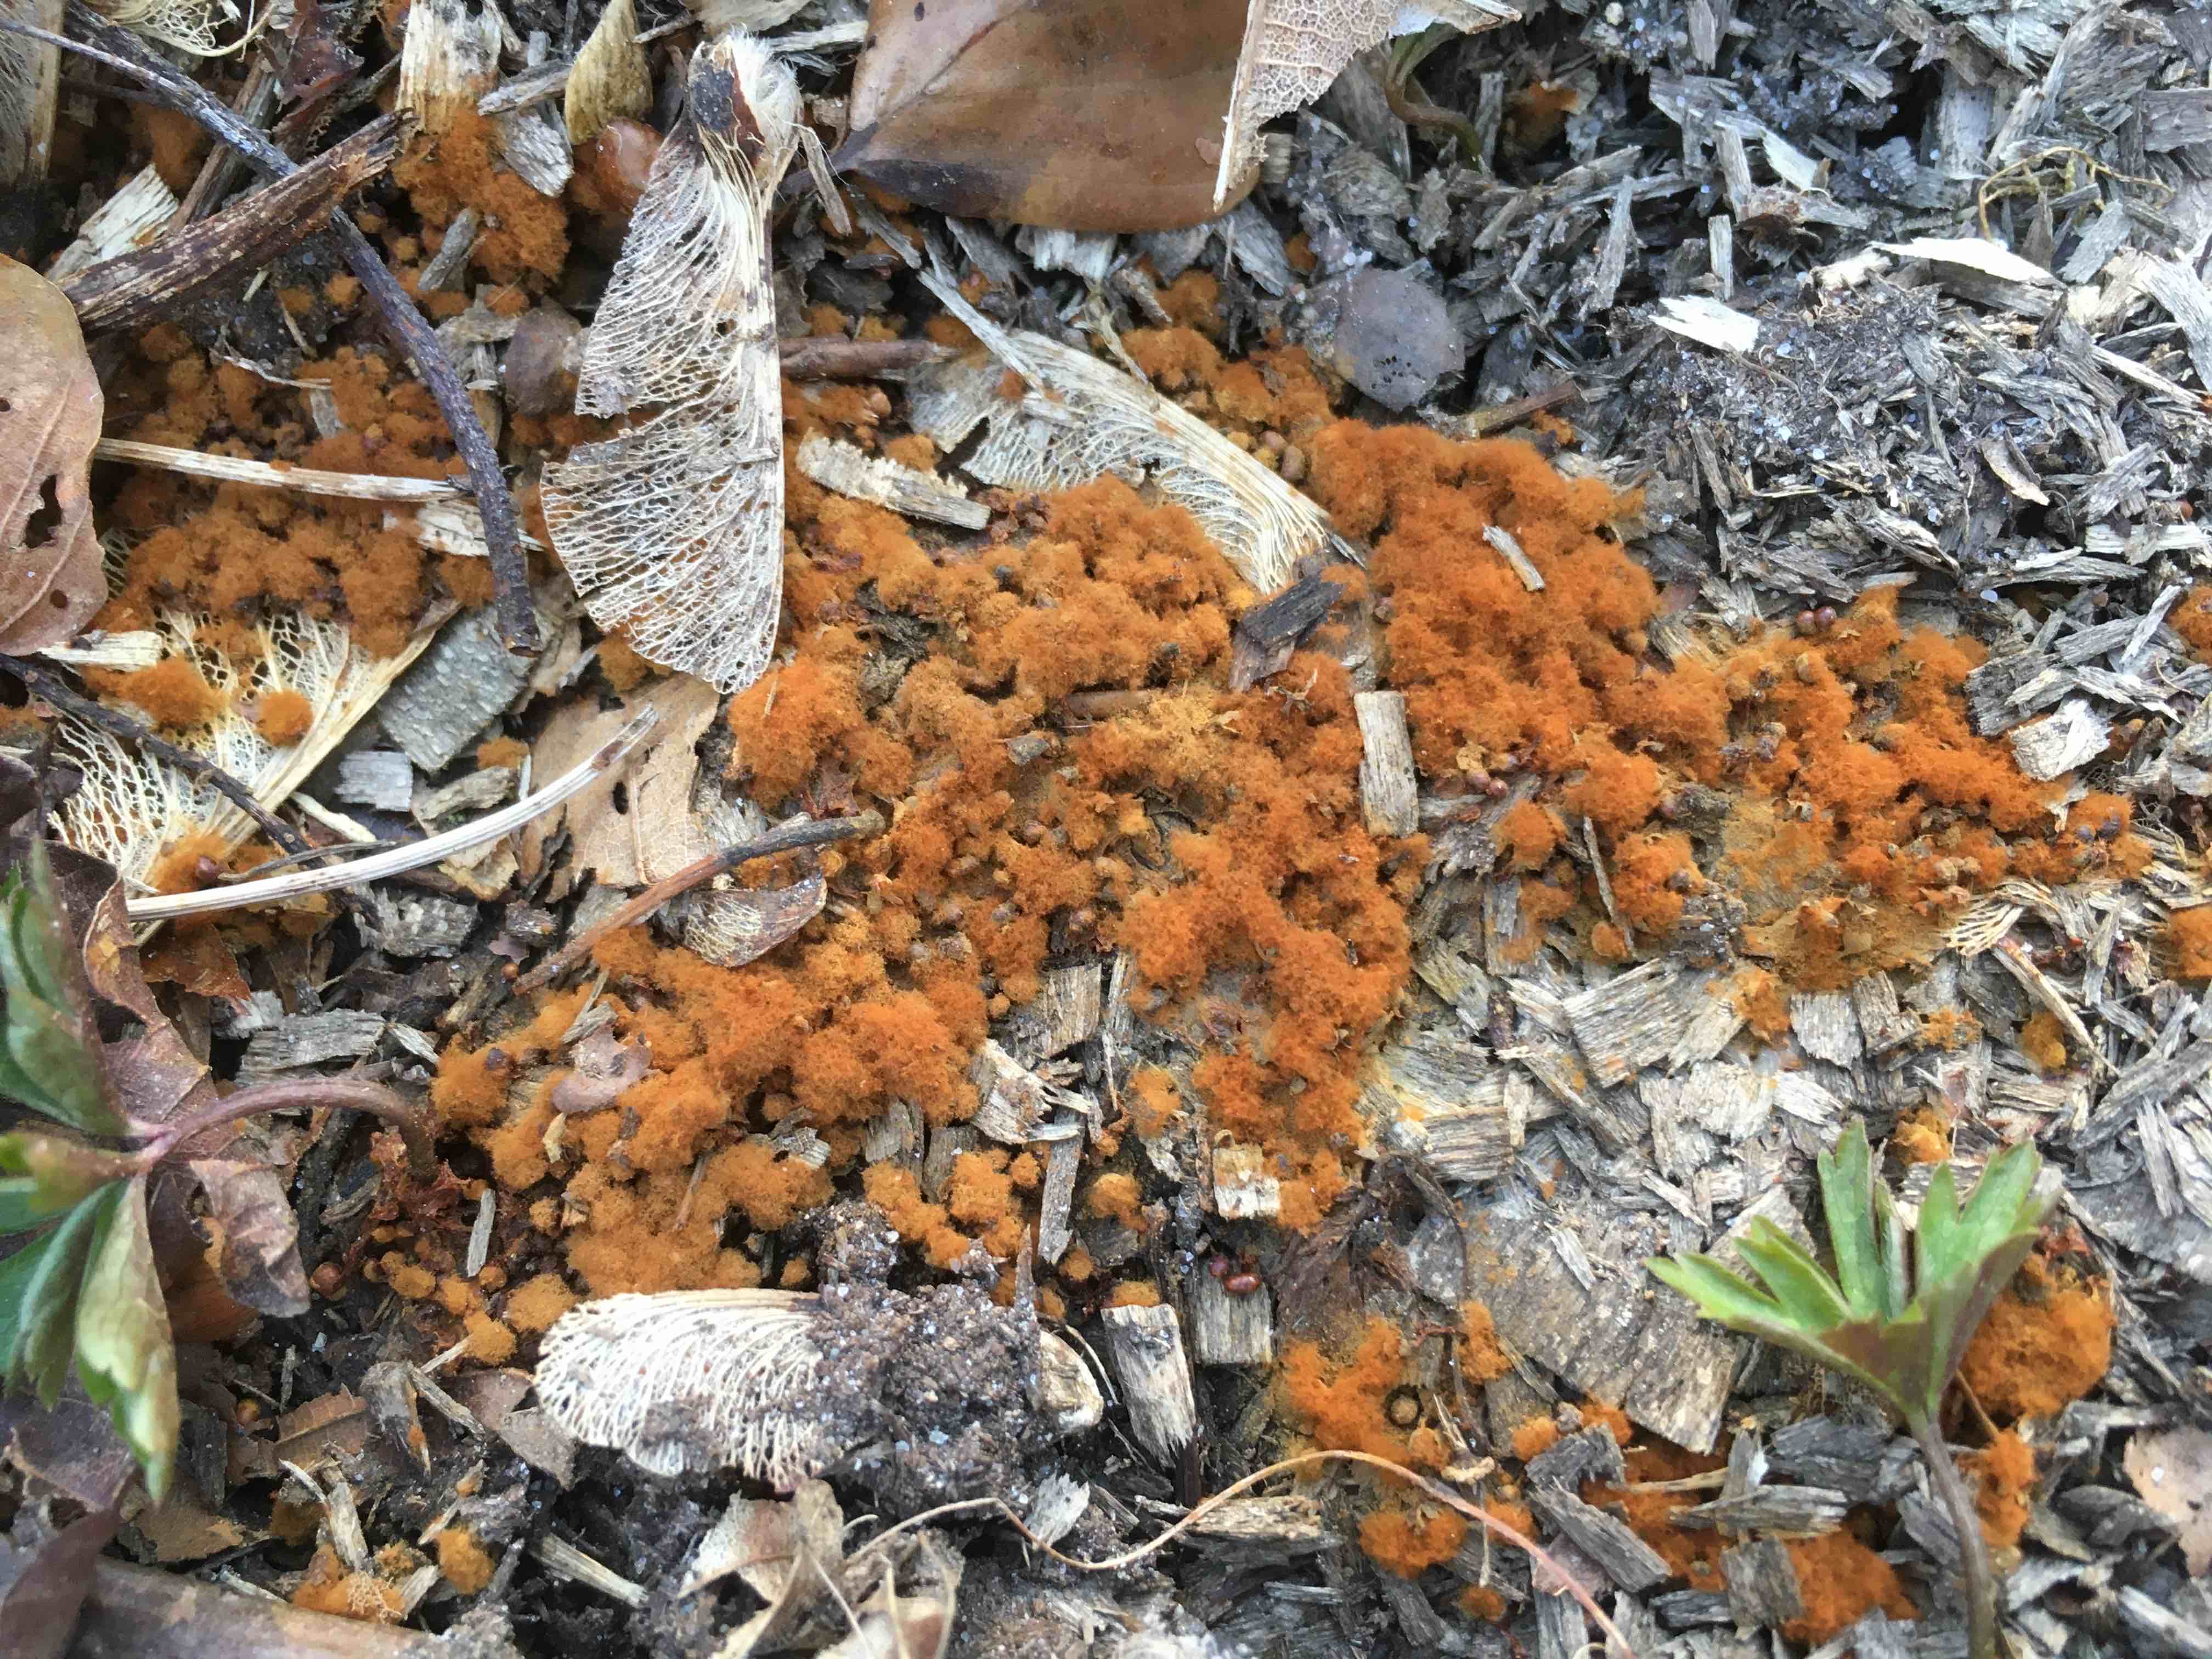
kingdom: Protozoa
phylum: Mycetozoa
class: Myxomycetes
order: Trichiales
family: Trichiaceae
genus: Metatrichia
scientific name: Metatrichia floriformis
